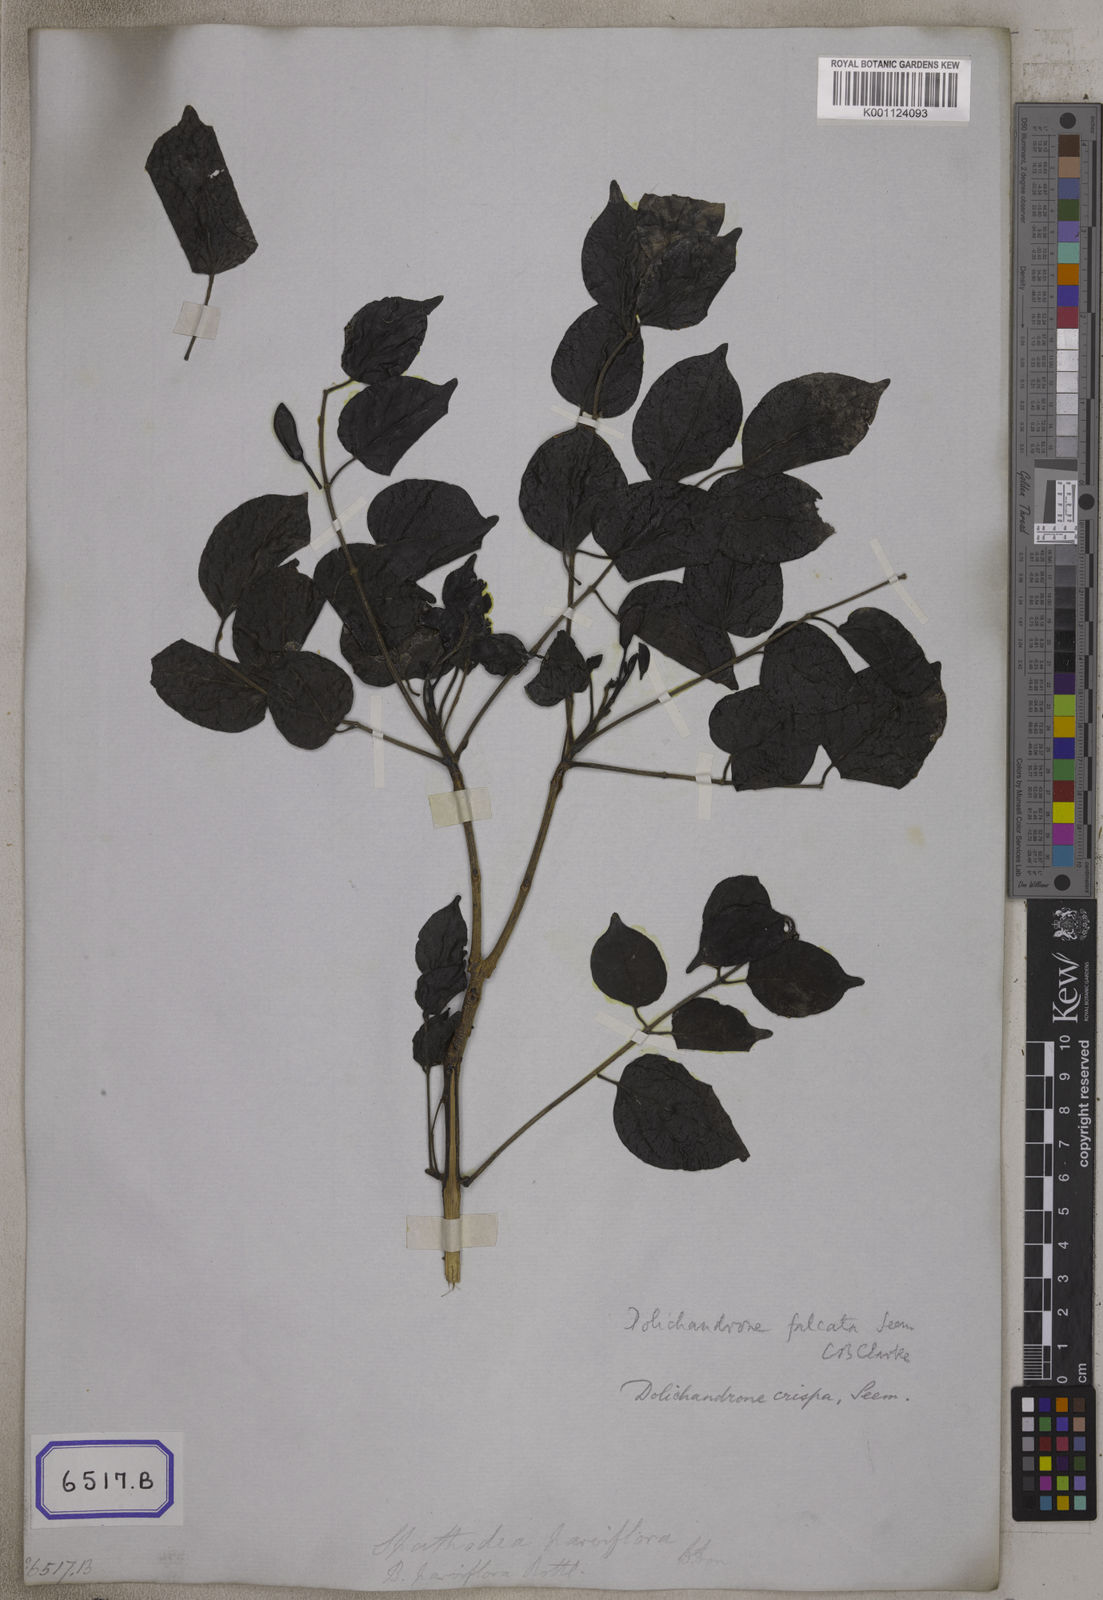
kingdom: Plantae
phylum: Tracheophyta
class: Magnoliopsida
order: Lamiales
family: Bignoniaceae
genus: Spathodea
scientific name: Spathodea
